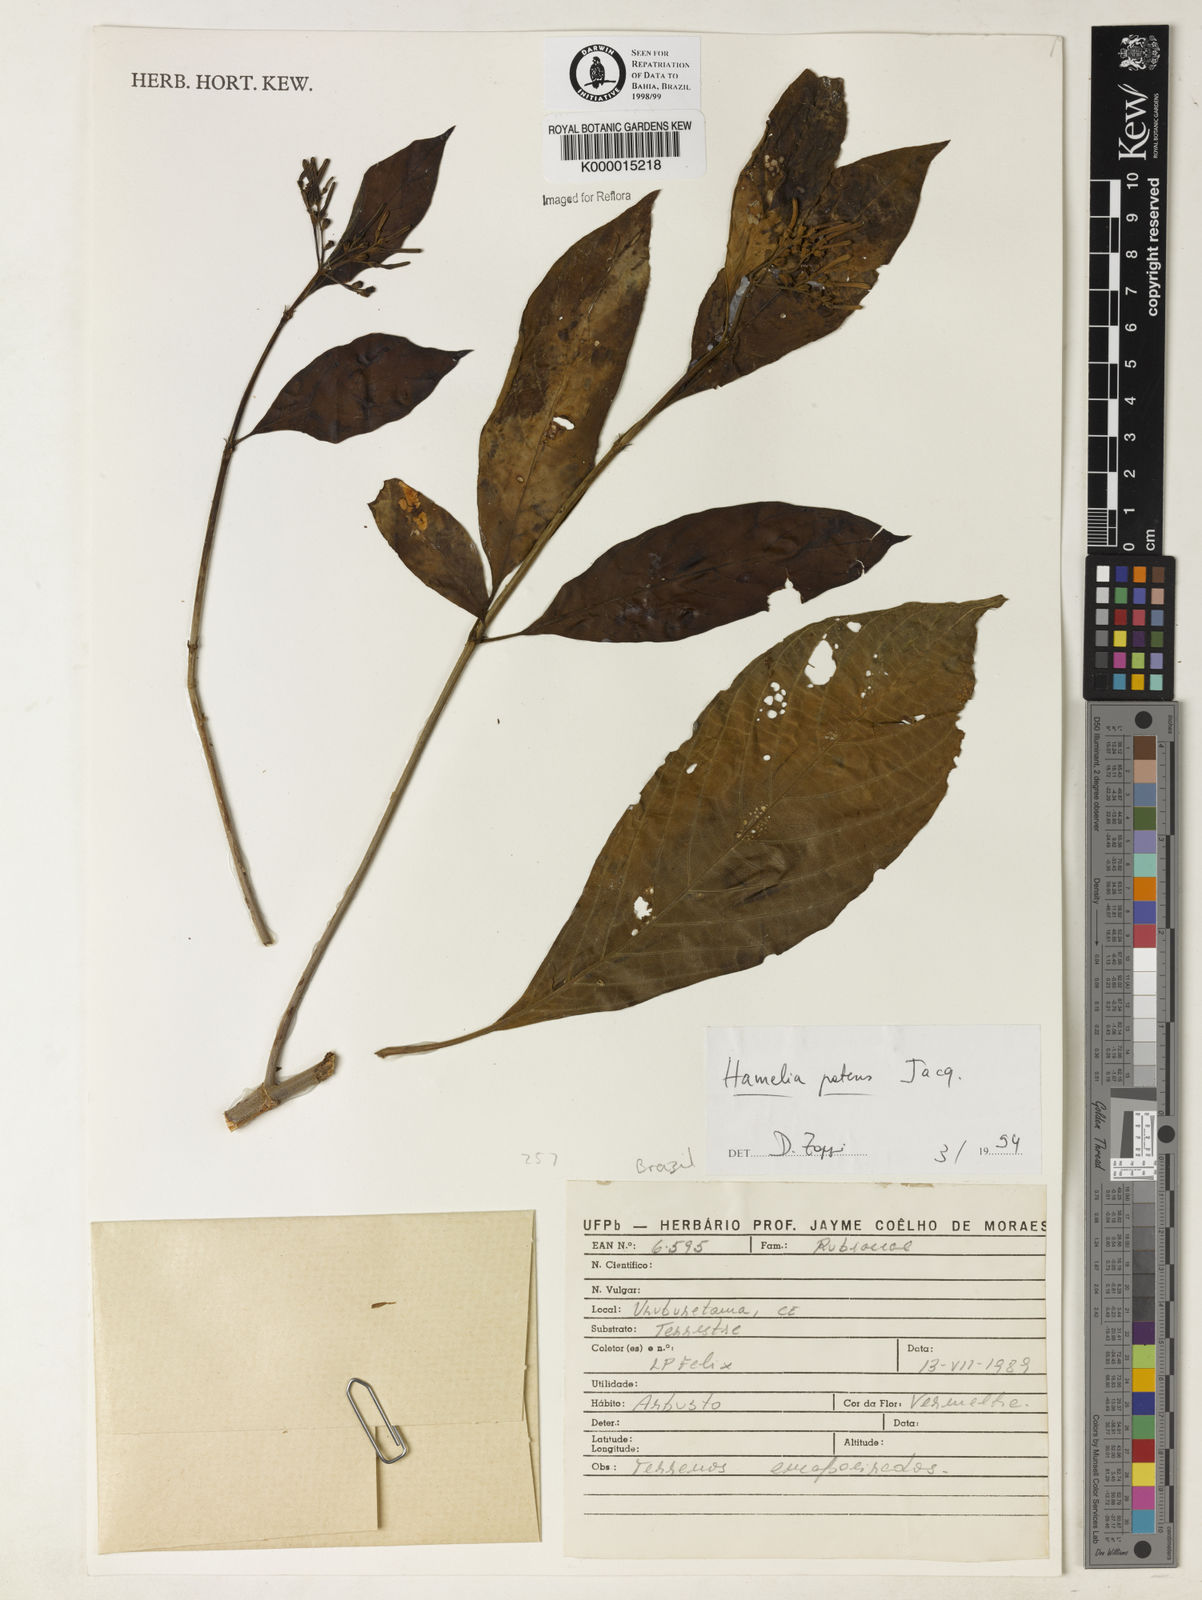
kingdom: Plantae
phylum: Tracheophyta
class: Magnoliopsida
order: Gentianales
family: Rubiaceae
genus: Hamelia
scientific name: Hamelia patens
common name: Redhead
